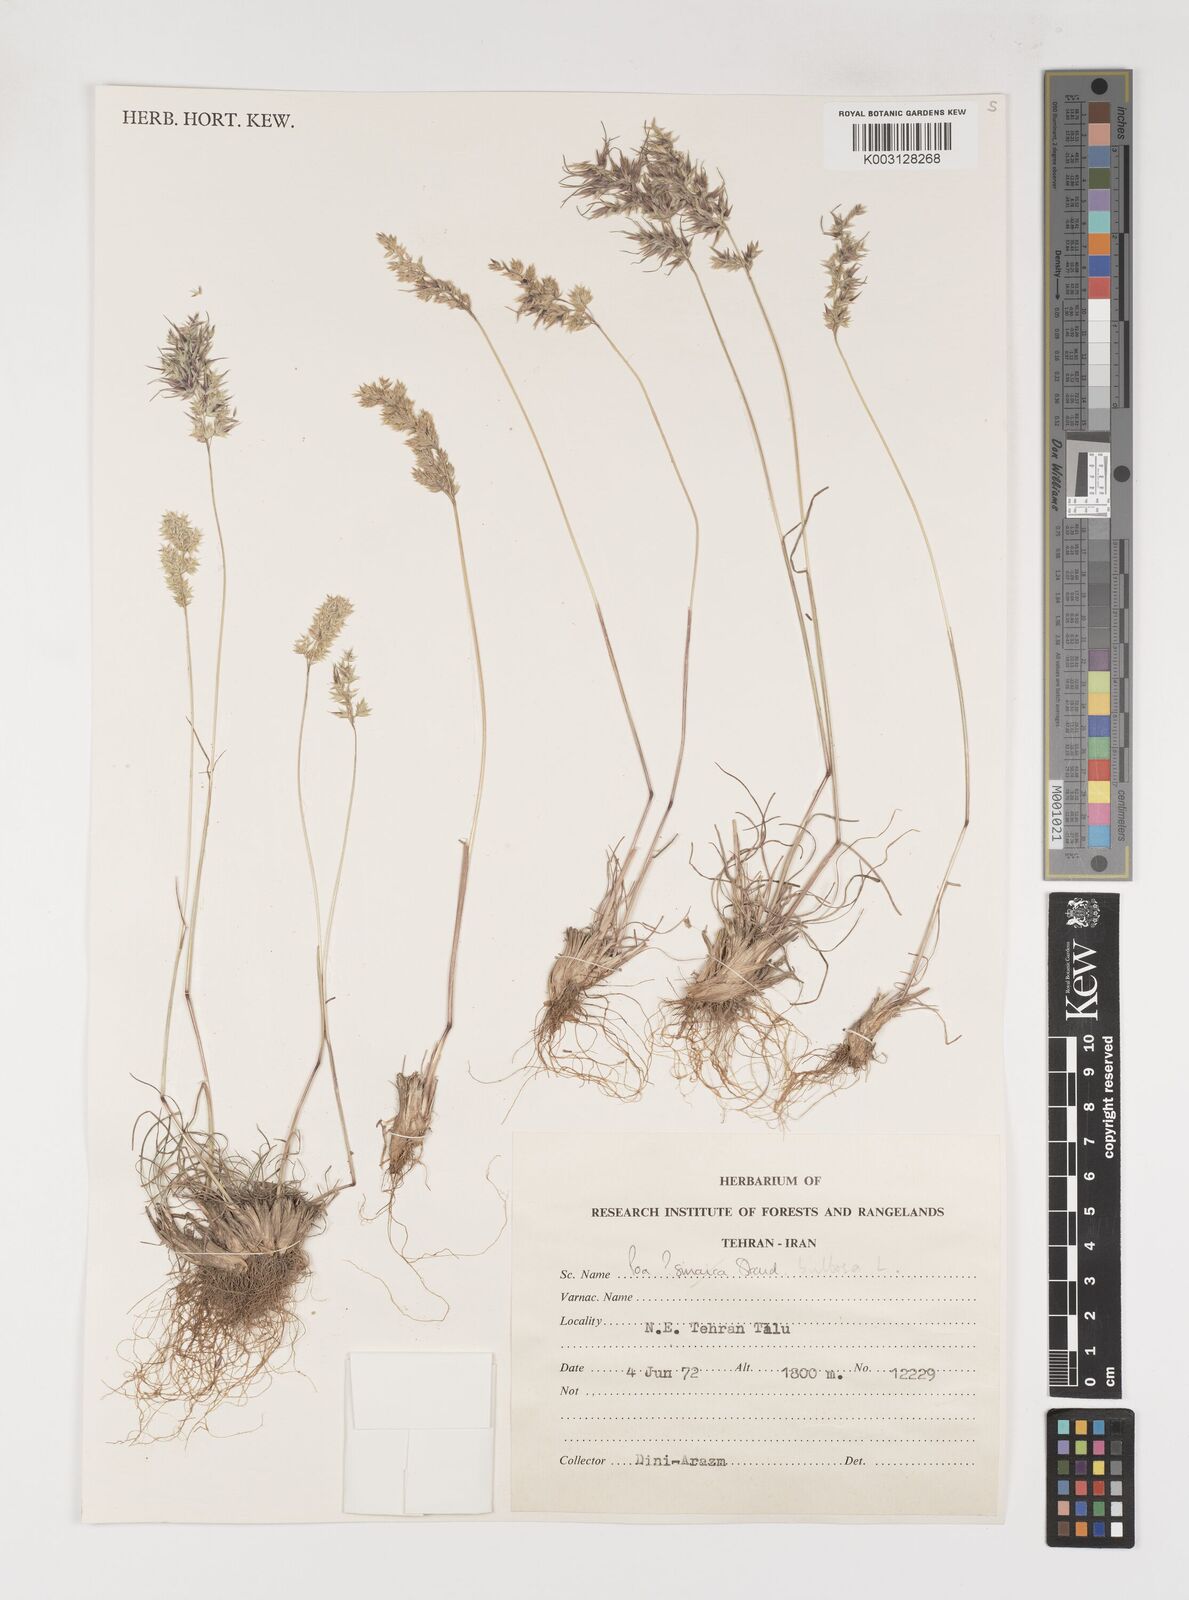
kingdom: Plantae
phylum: Tracheophyta
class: Liliopsida
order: Poales
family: Poaceae
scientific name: Poaceae
